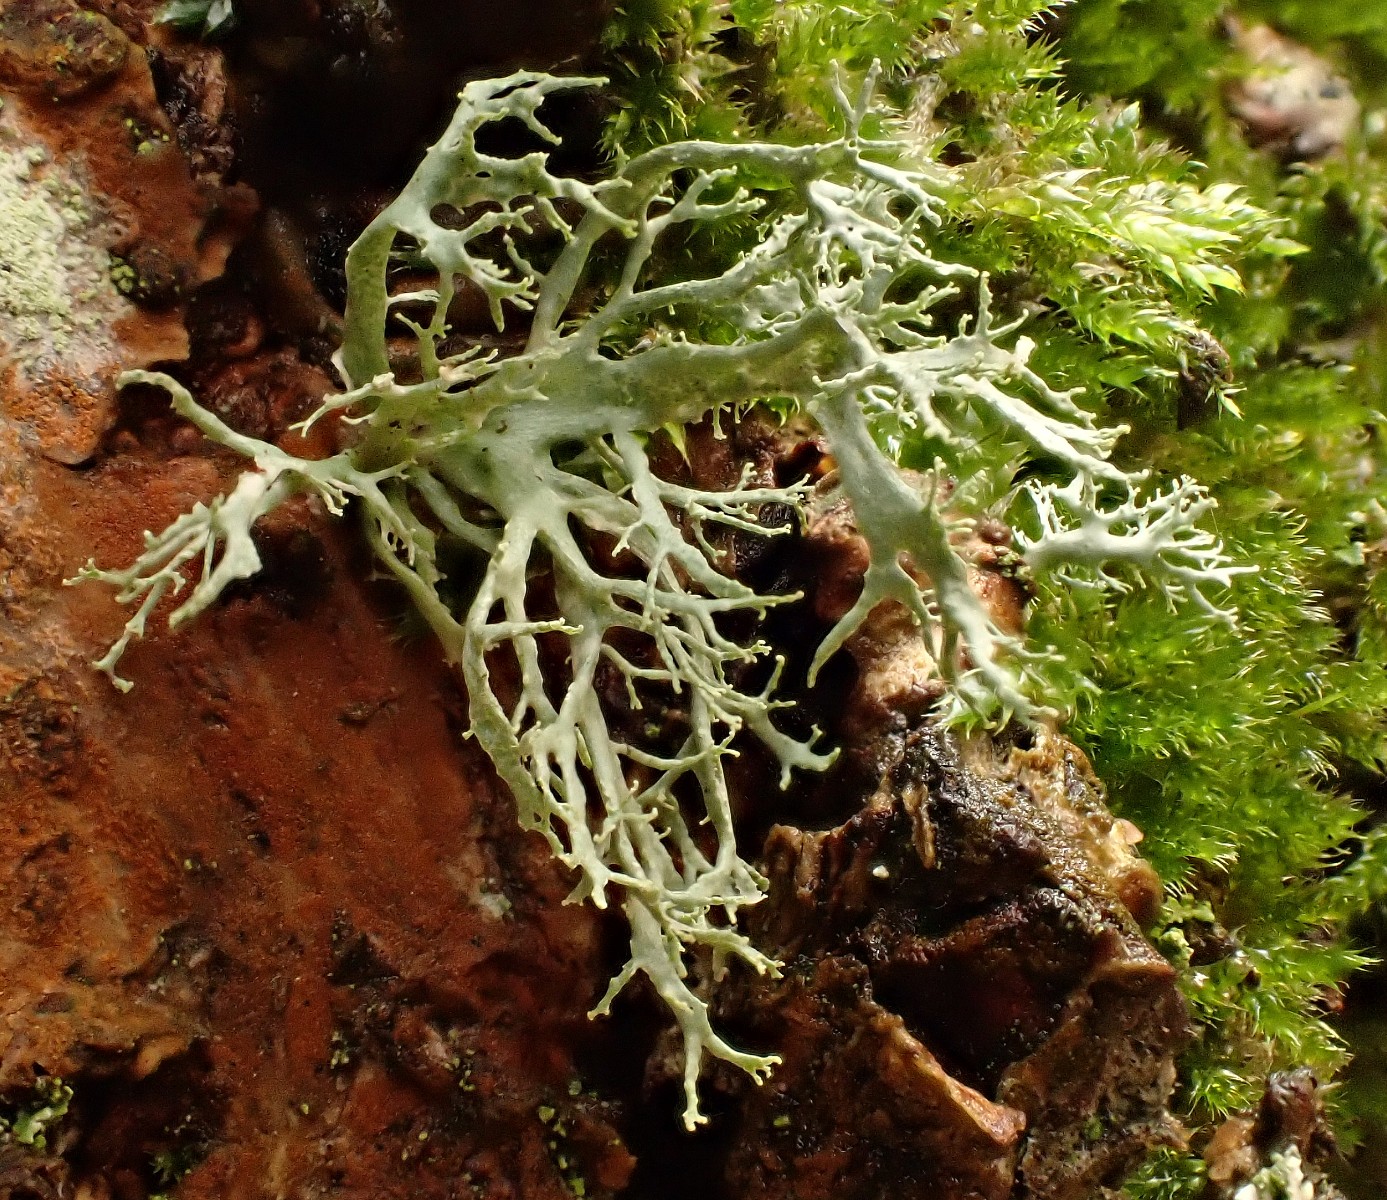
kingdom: Fungi
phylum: Ascomycota
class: Lecanoromycetes
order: Lecanorales
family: Ramalinaceae
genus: Ramalina
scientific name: Ramalina farinacea
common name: melet grenlav
